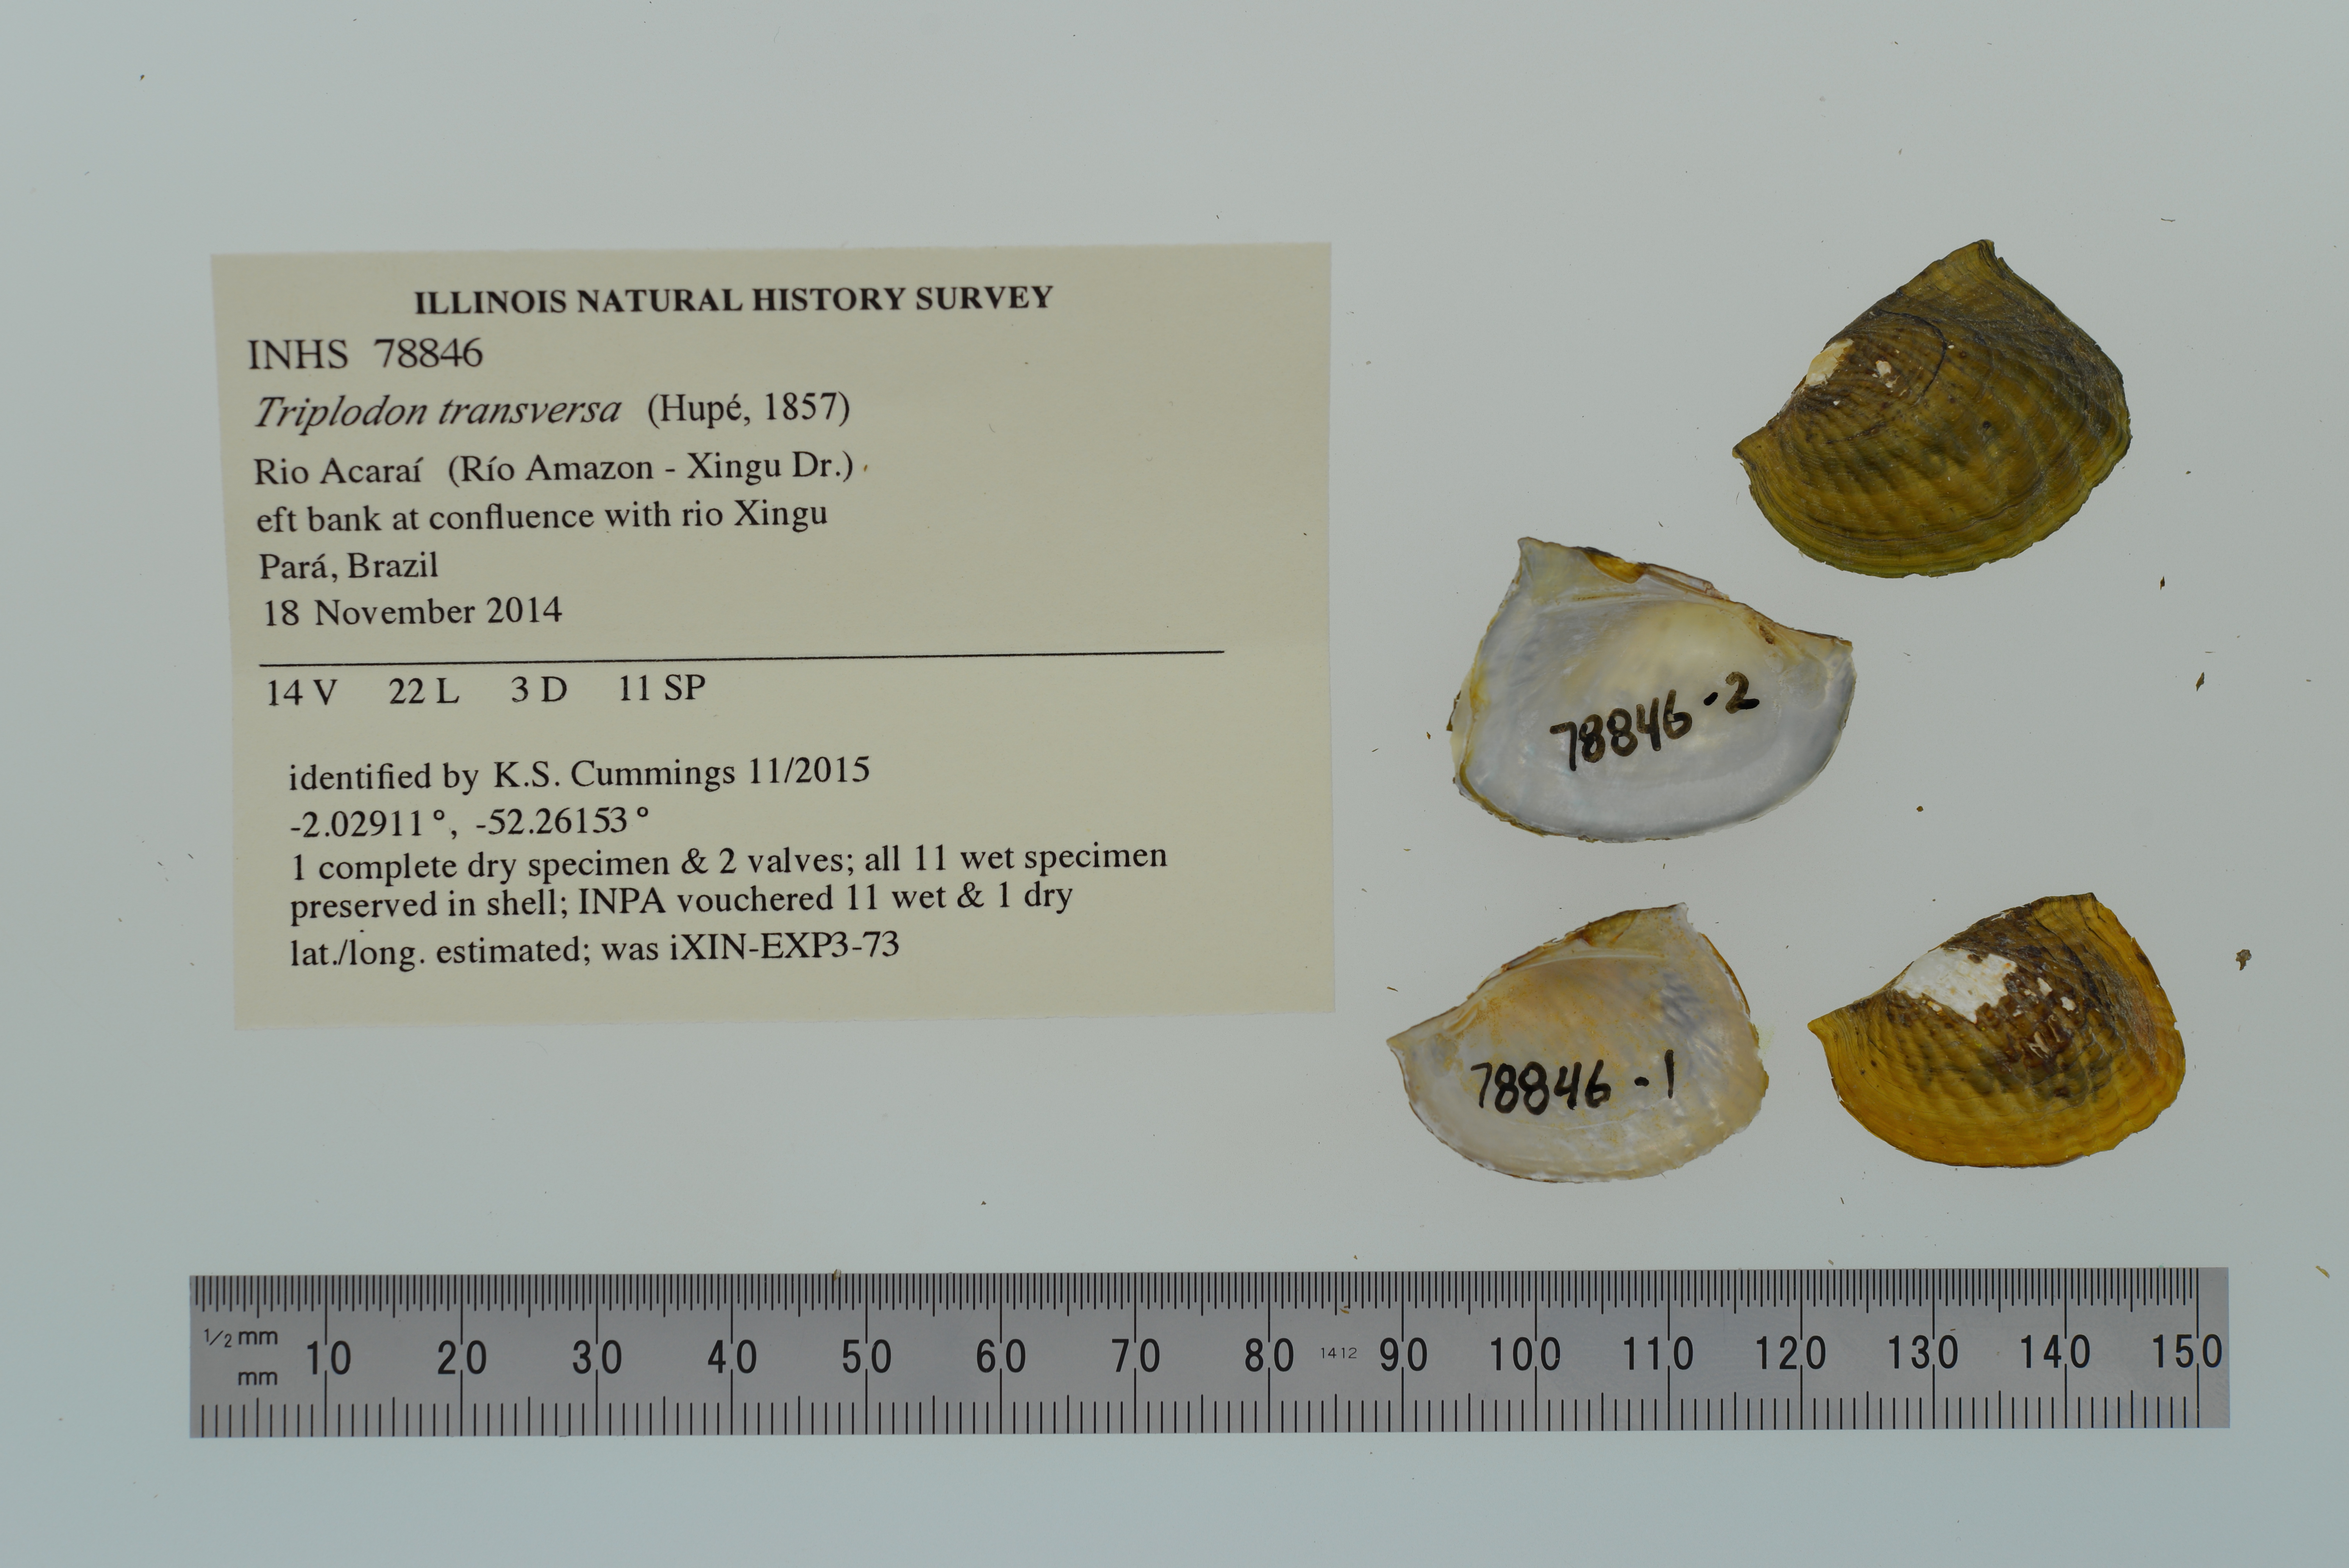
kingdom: Animalia
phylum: Mollusca
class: Bivalvia
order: Unionida
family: Hyriidae
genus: Triplodon
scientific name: Triplodon
